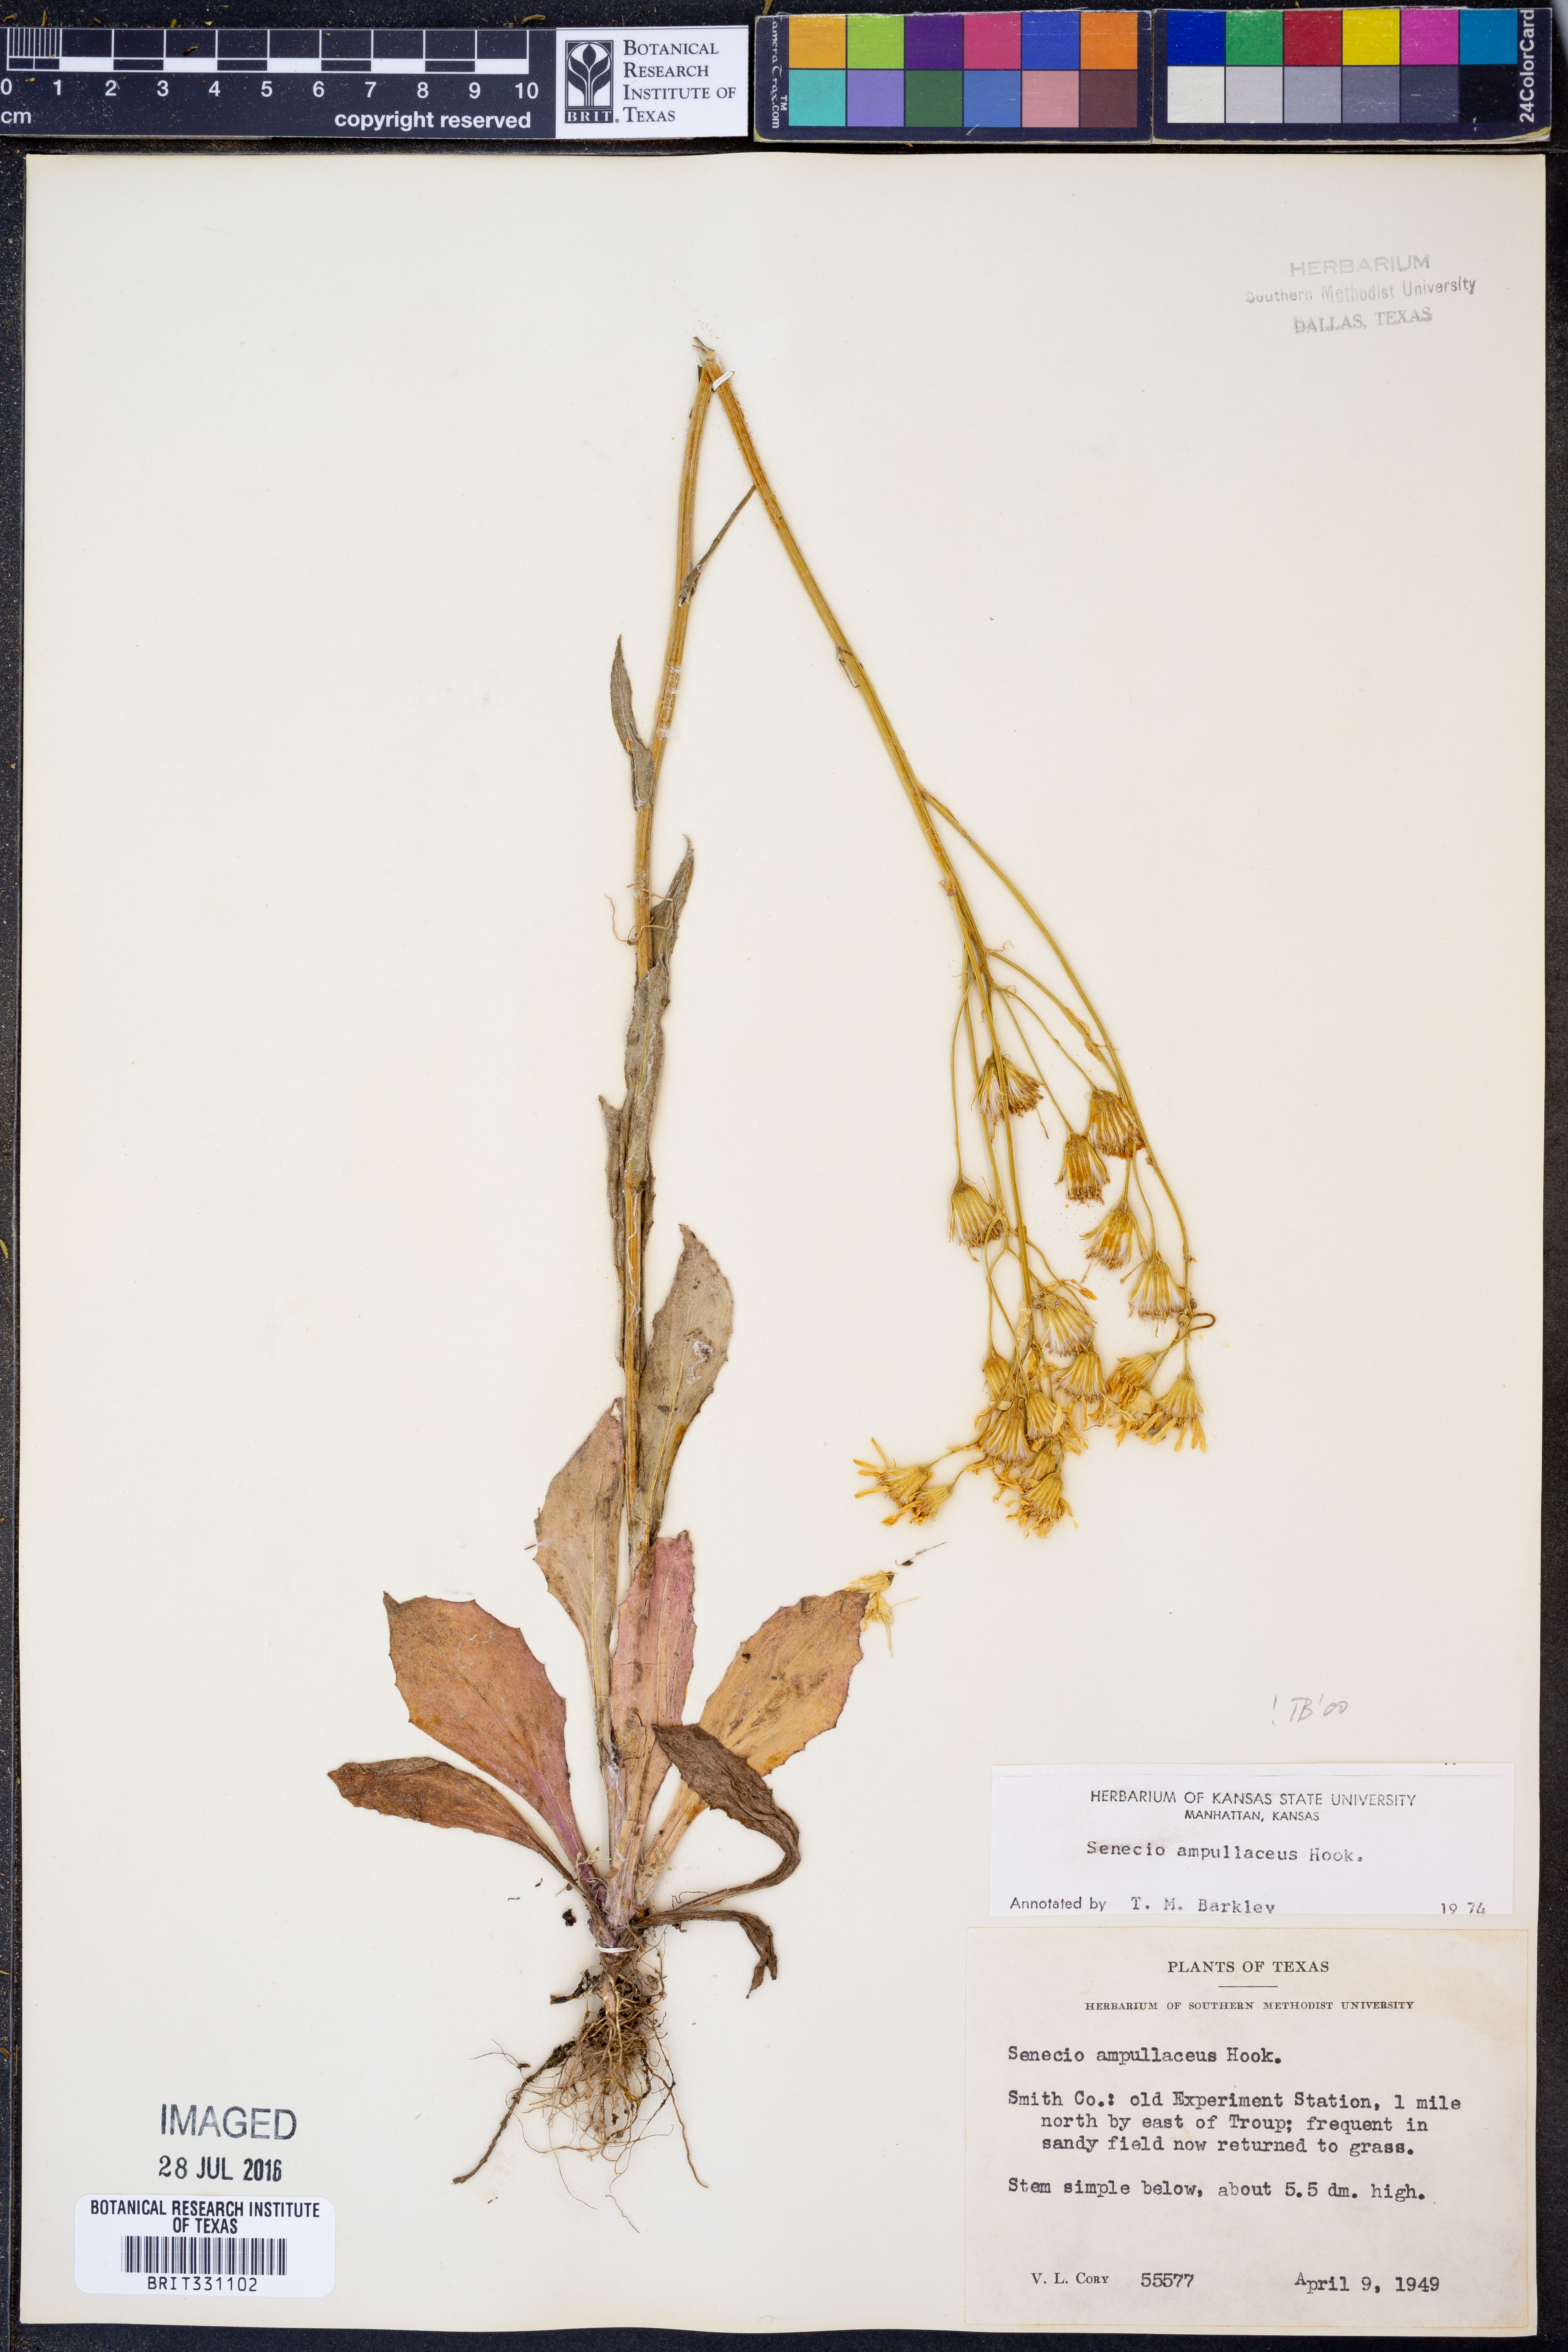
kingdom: Plantae
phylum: Tracheophyta
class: Magnoliopsida
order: Asterales
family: Asteraceae
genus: Senecio
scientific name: Senecio ampullaceus
